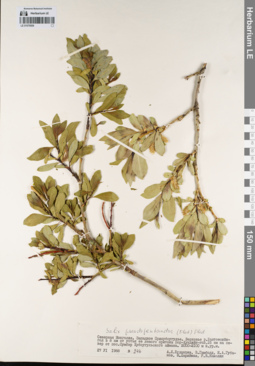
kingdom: Plantae
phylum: Tracheophyta
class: Magnoliopsida
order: Malpighiales
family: Salicaceae
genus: Salix
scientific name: Salix pseudopentandra
